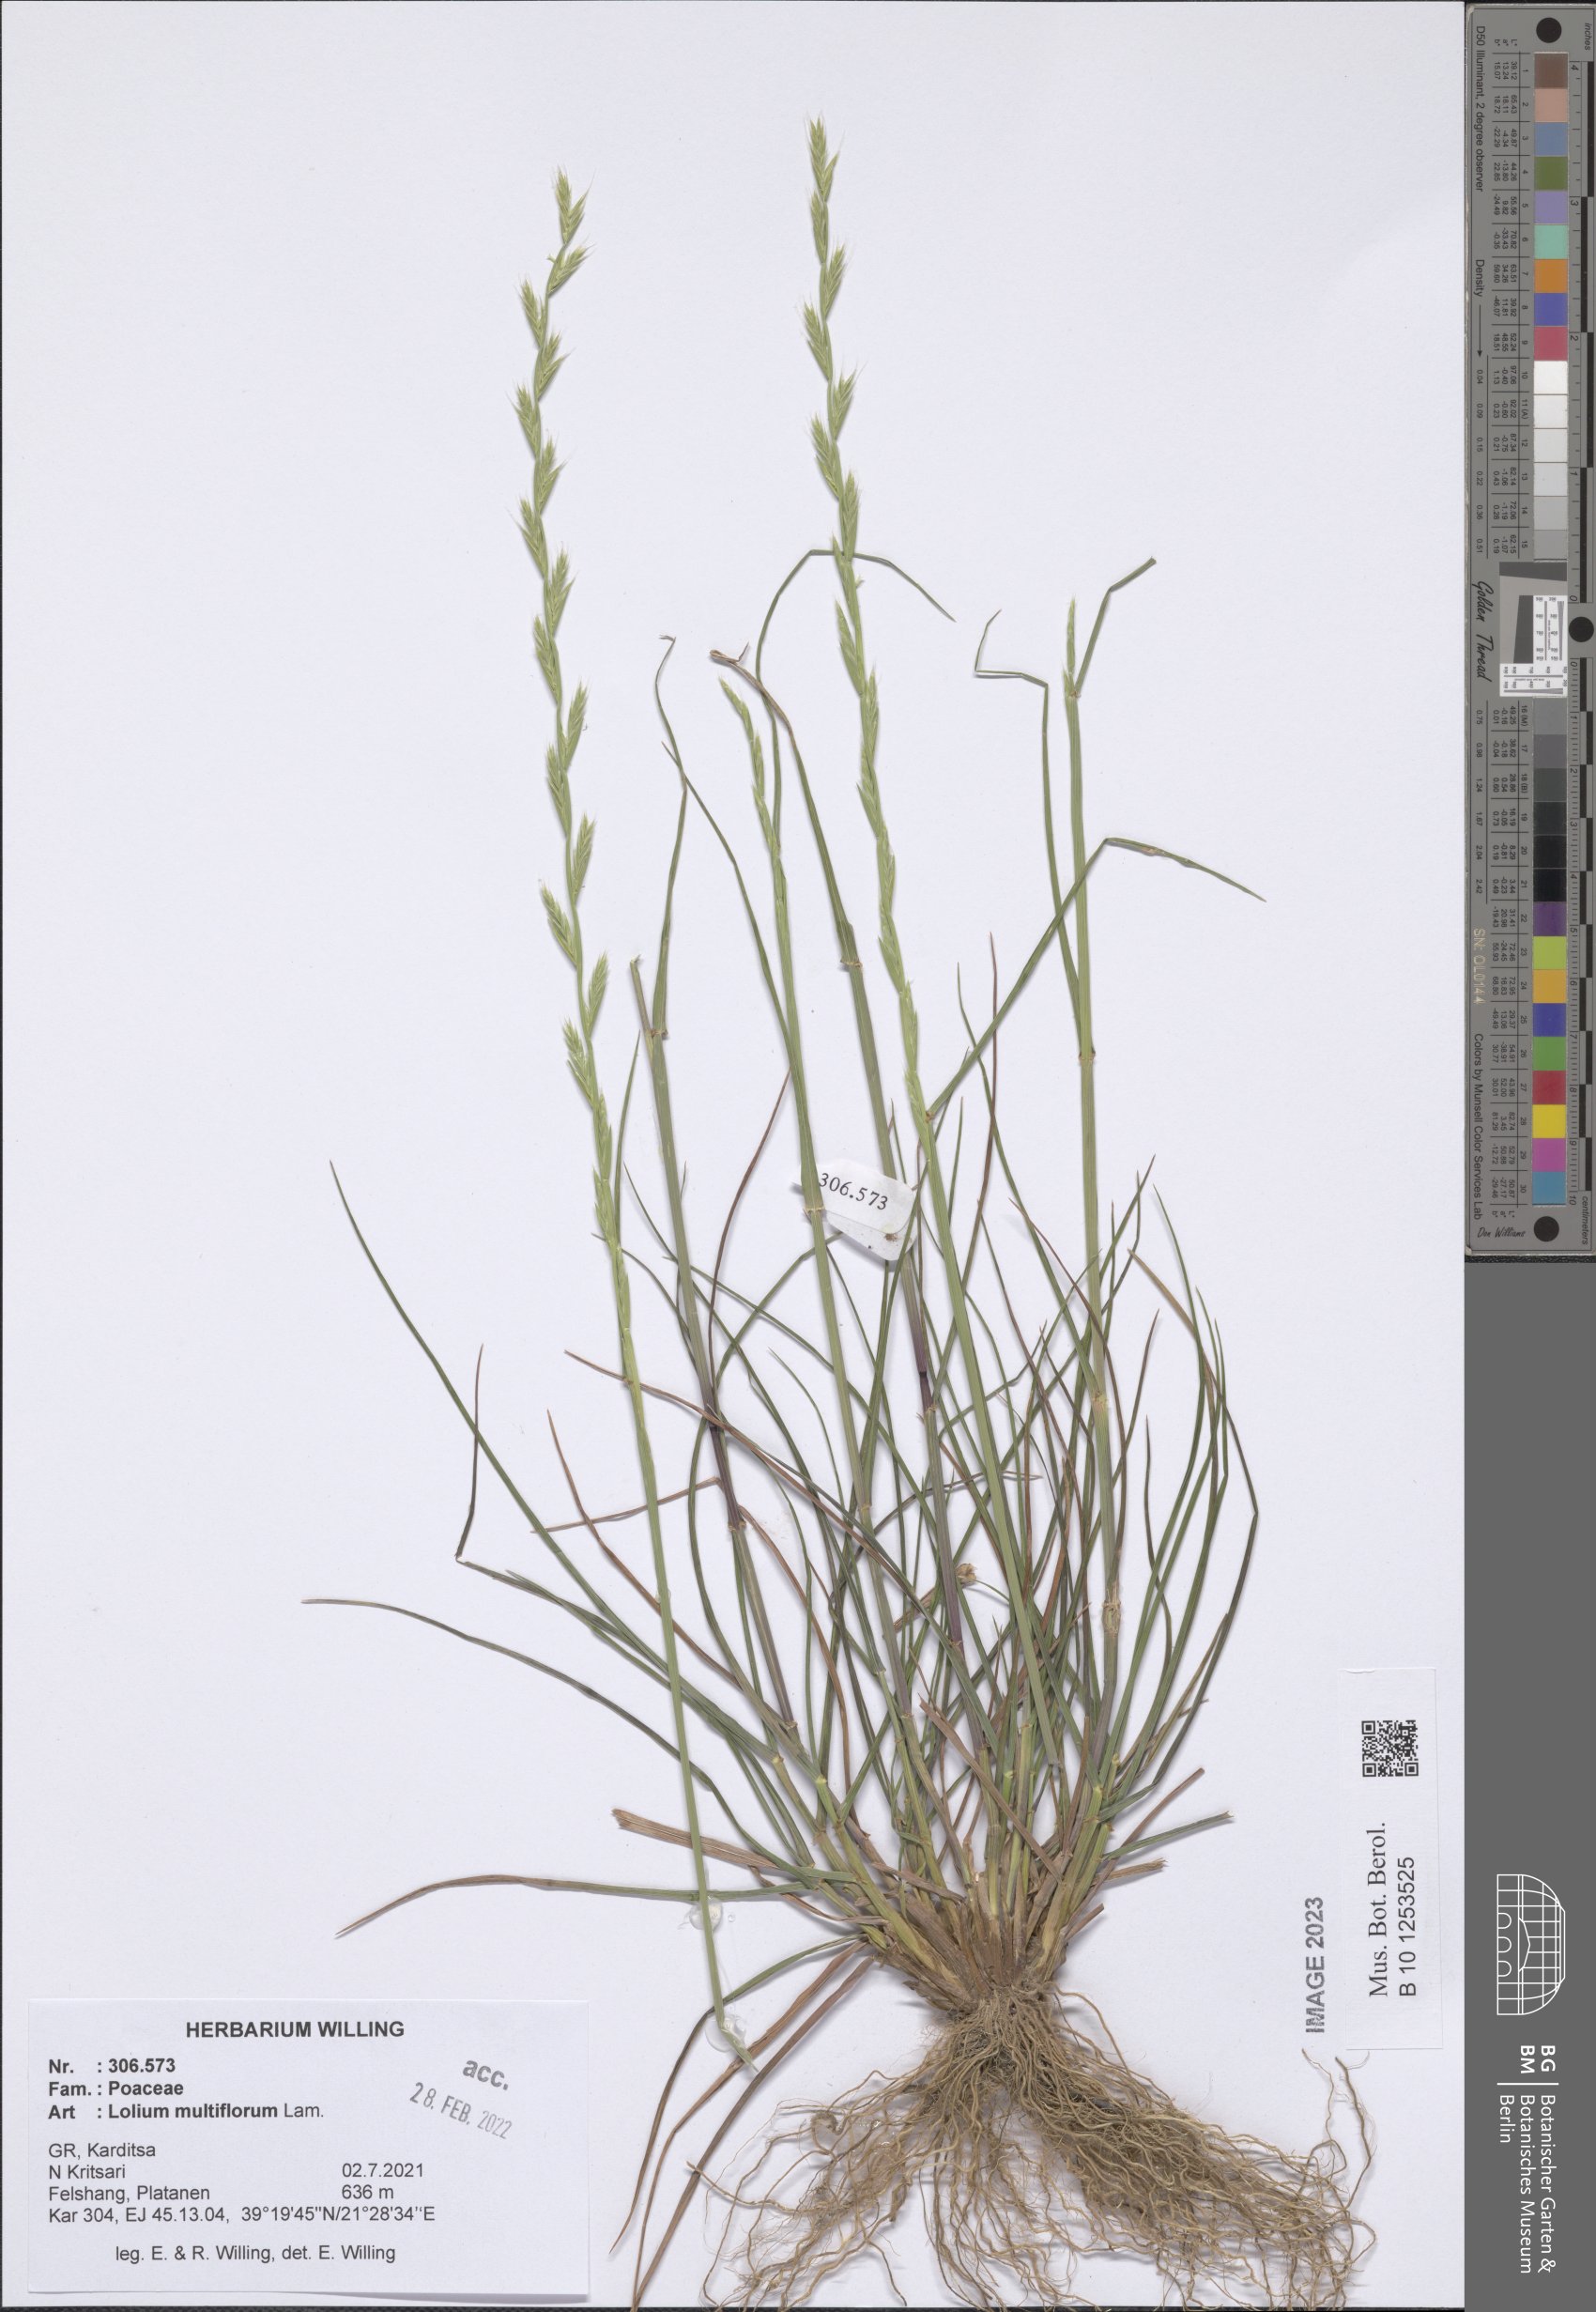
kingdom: Plantae
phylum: Tracheophyta
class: Liliopsida
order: Poales
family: Poaceae
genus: Lolium
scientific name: Lolium multiflorum
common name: Annual ryegrass
